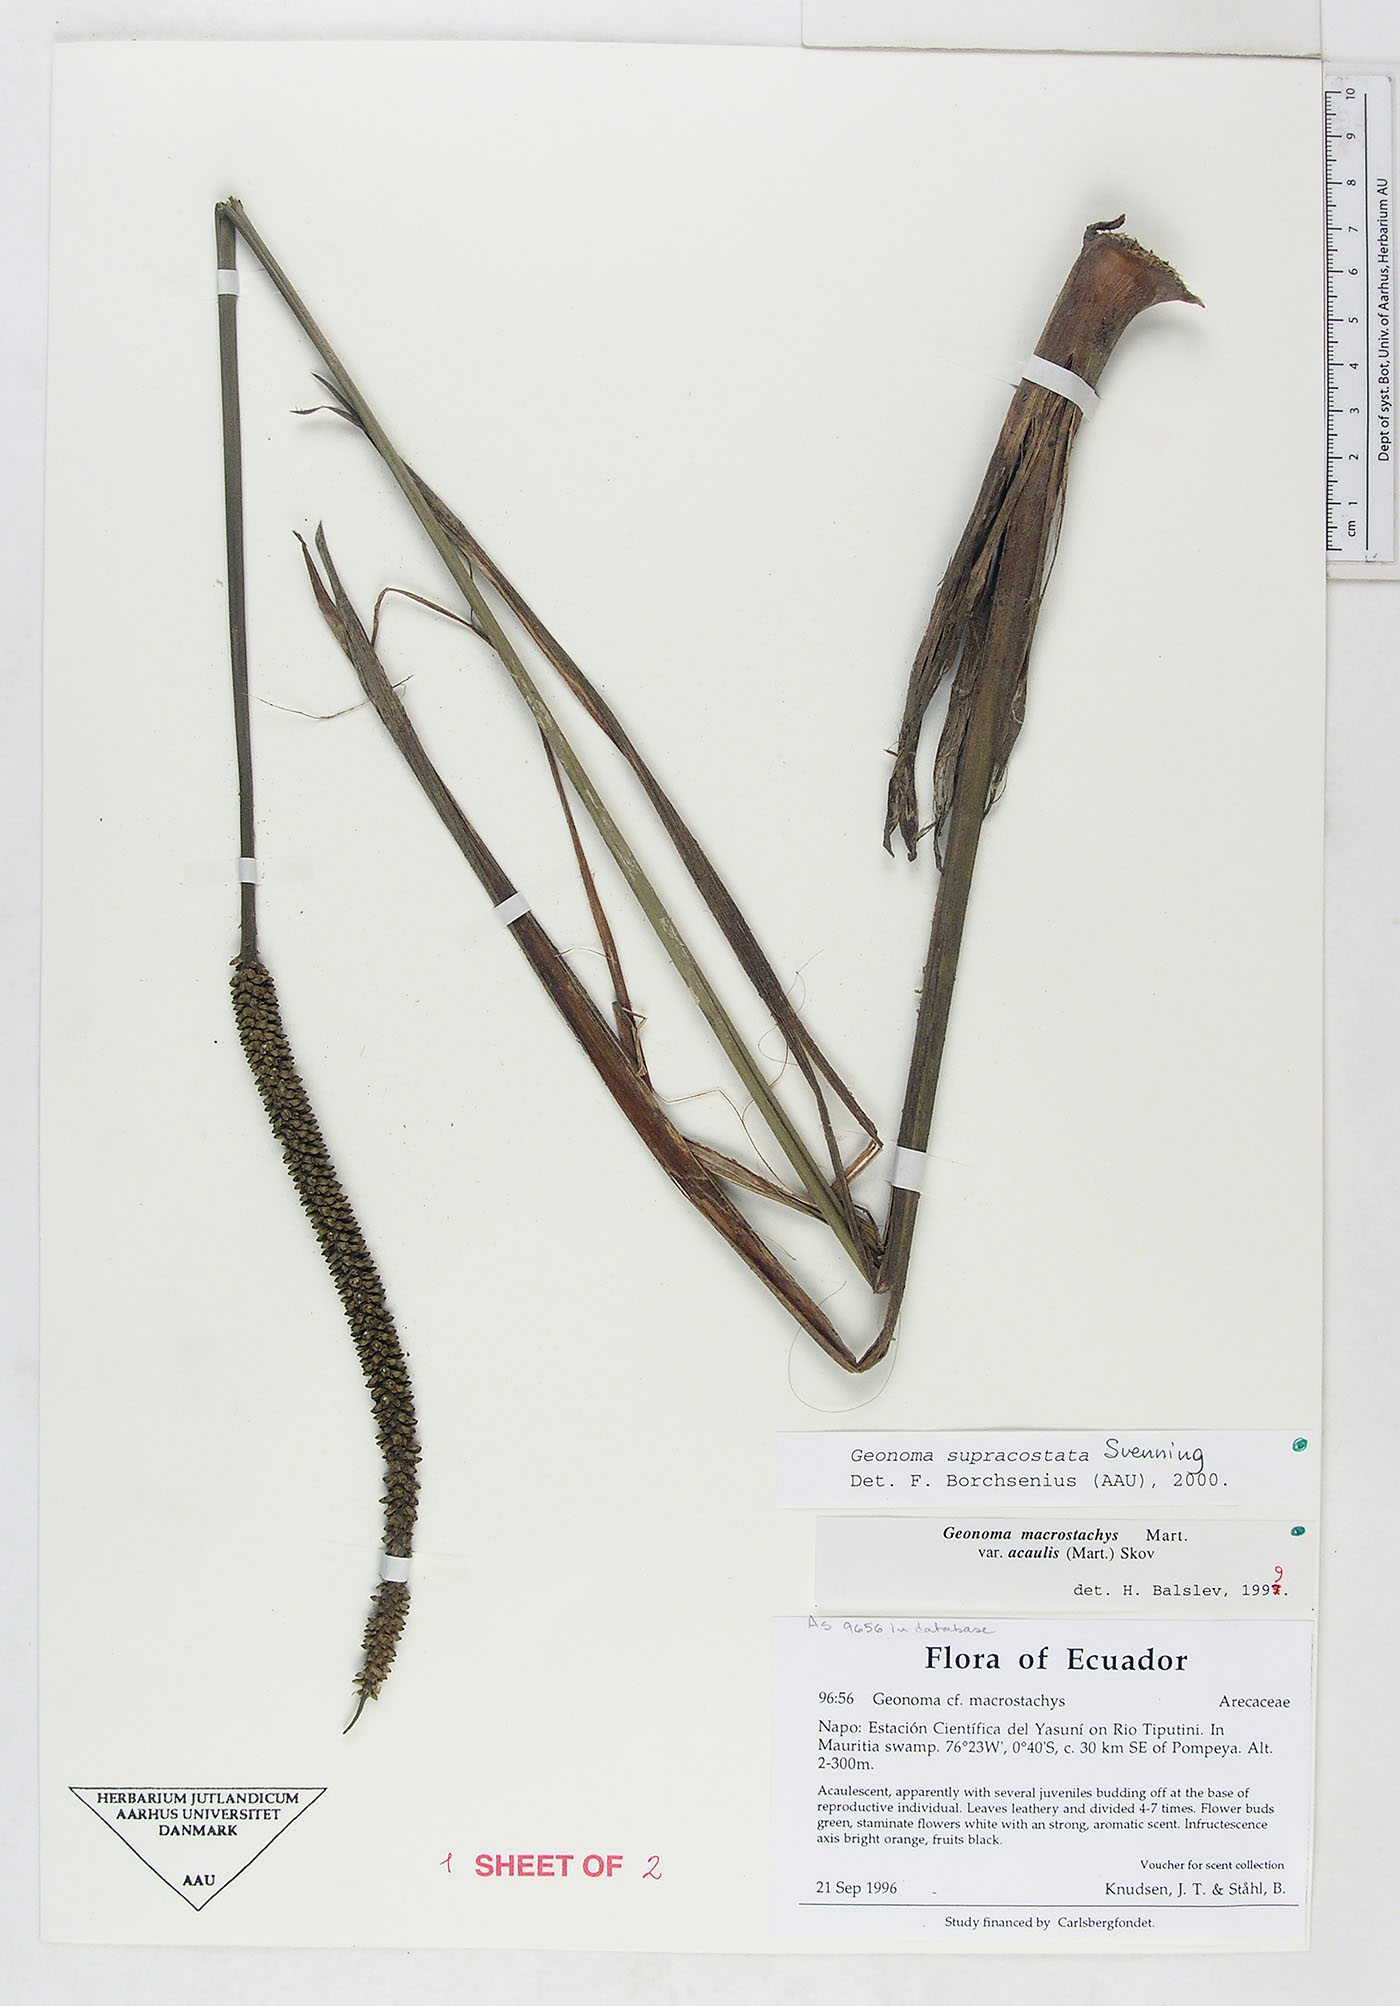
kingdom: Plantae
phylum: Tracheophyta
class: Liliopsida
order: Arecales
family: Arecaceae
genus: Geonoma
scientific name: Geonoma macrostachys
